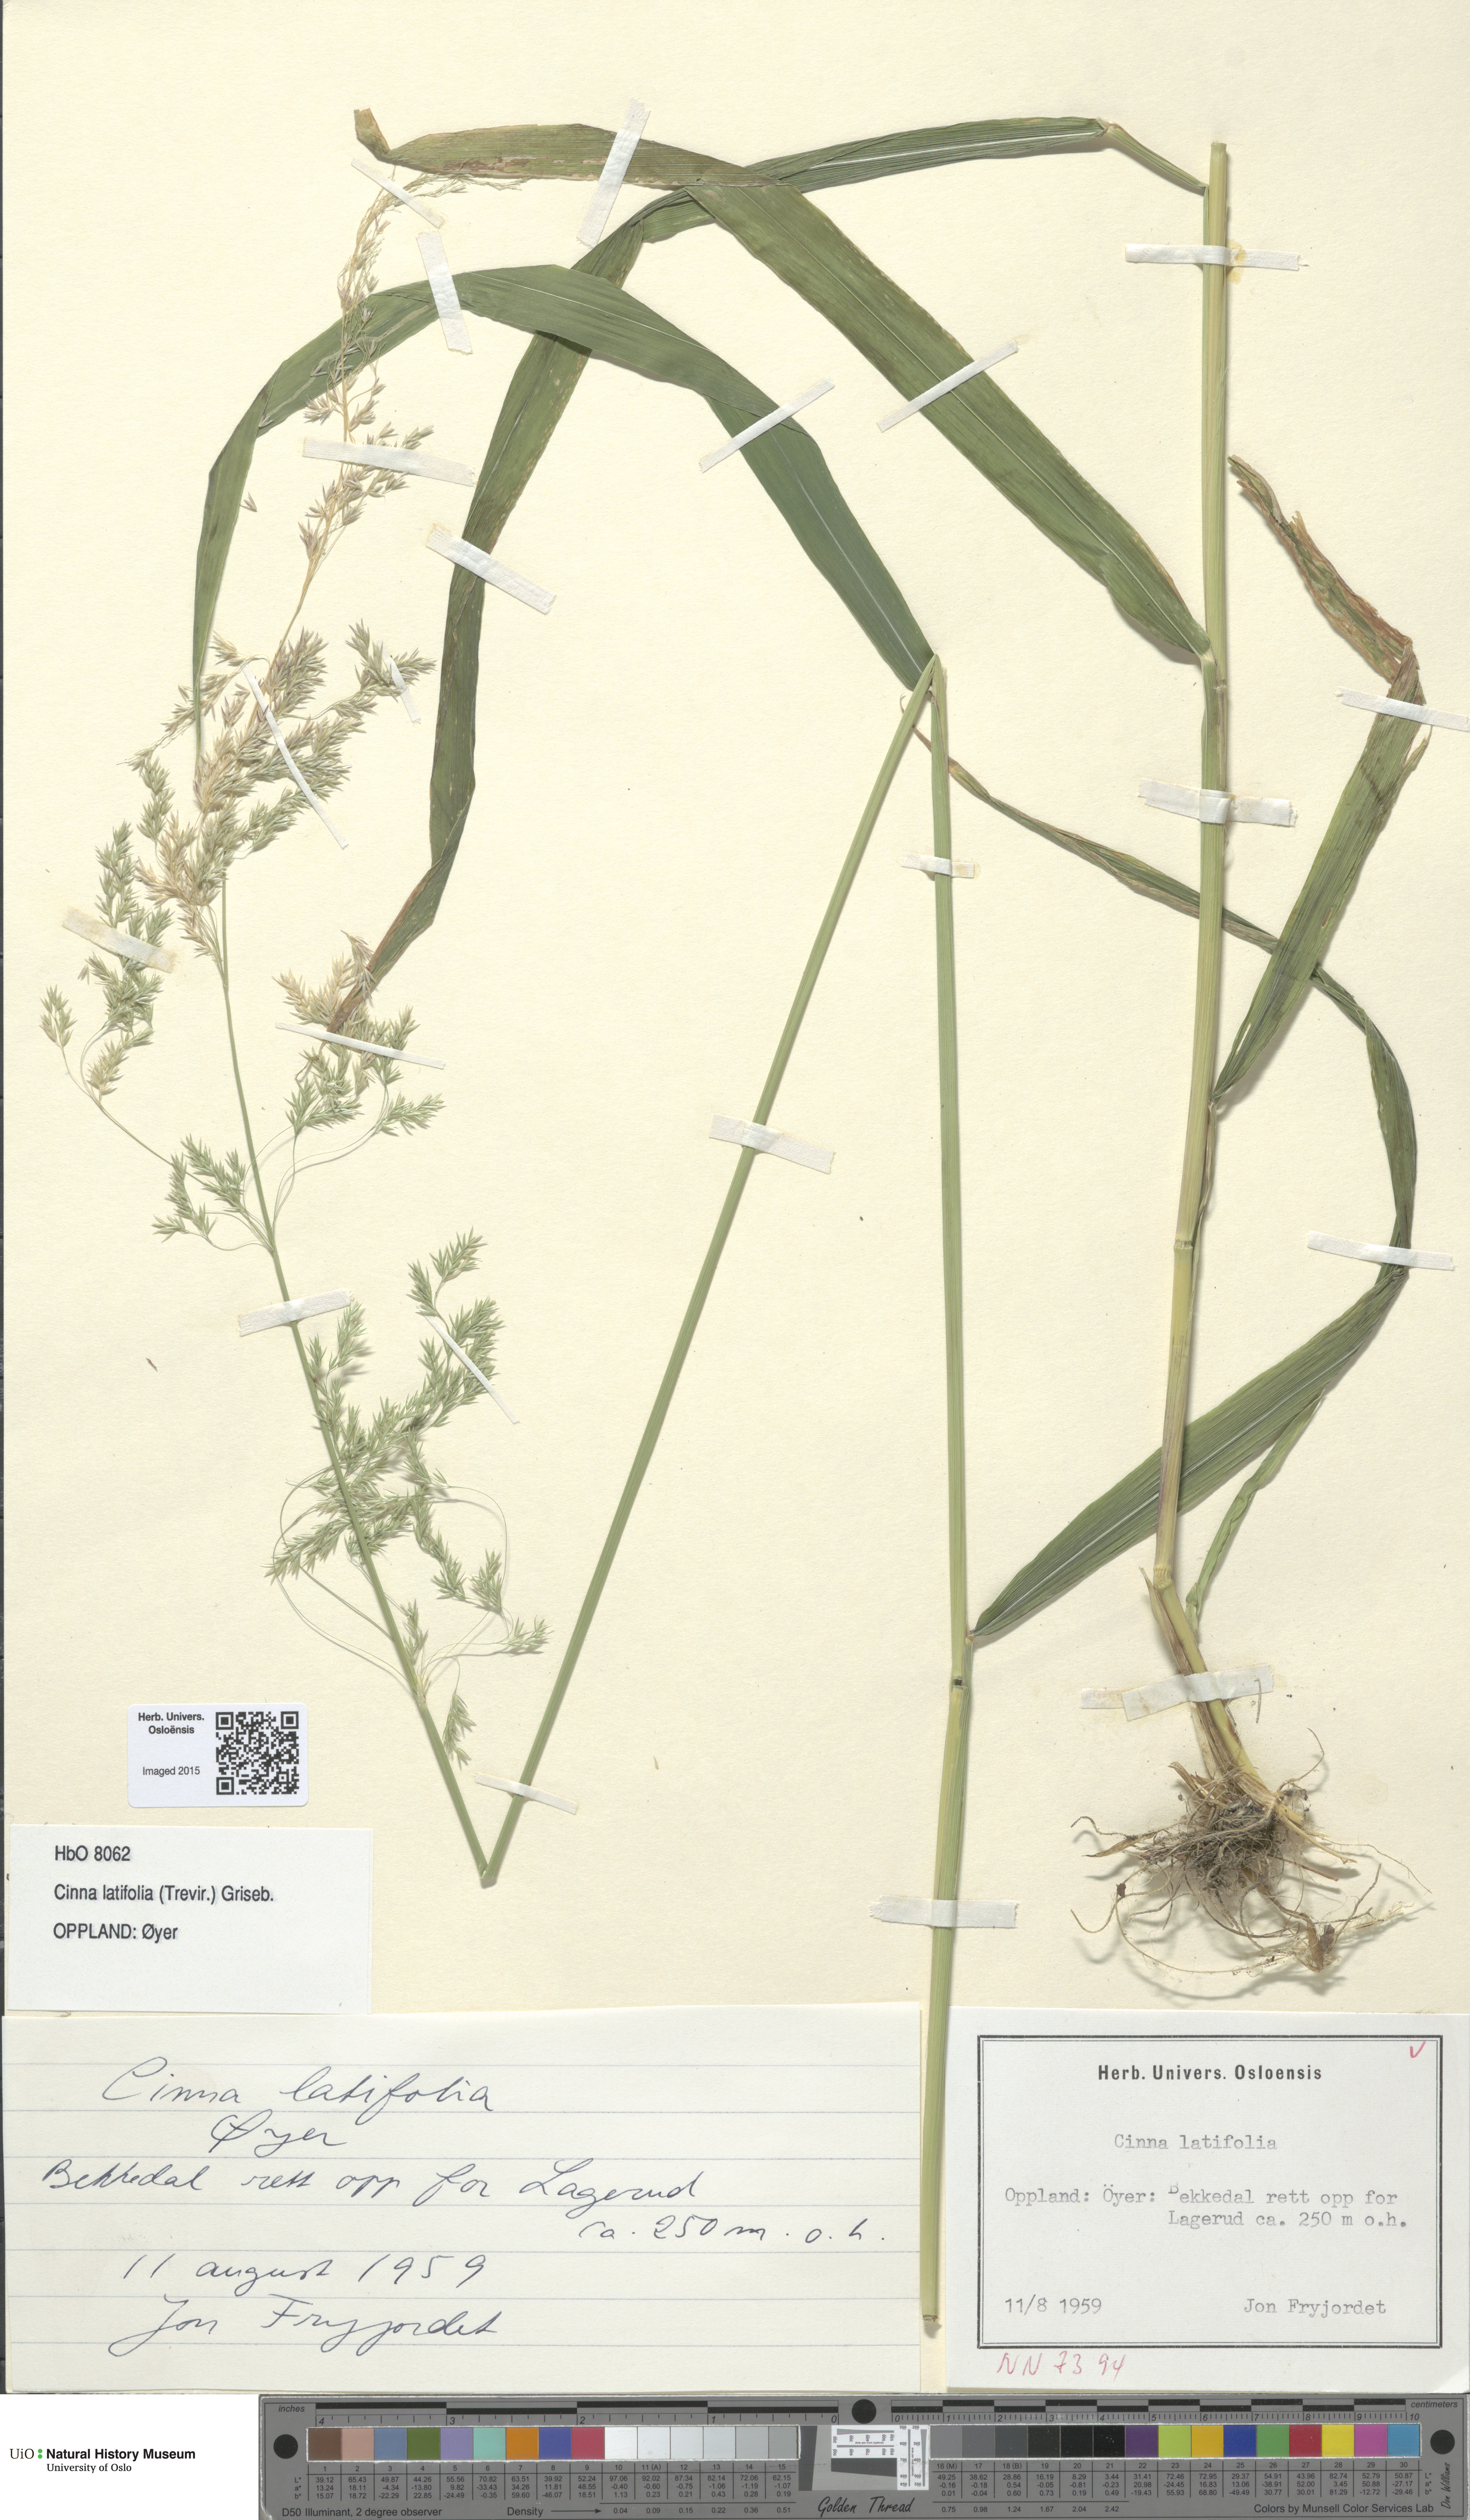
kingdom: Plantae
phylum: Tracheophyta
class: Liliopsida
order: Poales
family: Poaceae
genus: Cinna
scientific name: Cinna latifolia
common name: Drooping woodreed
